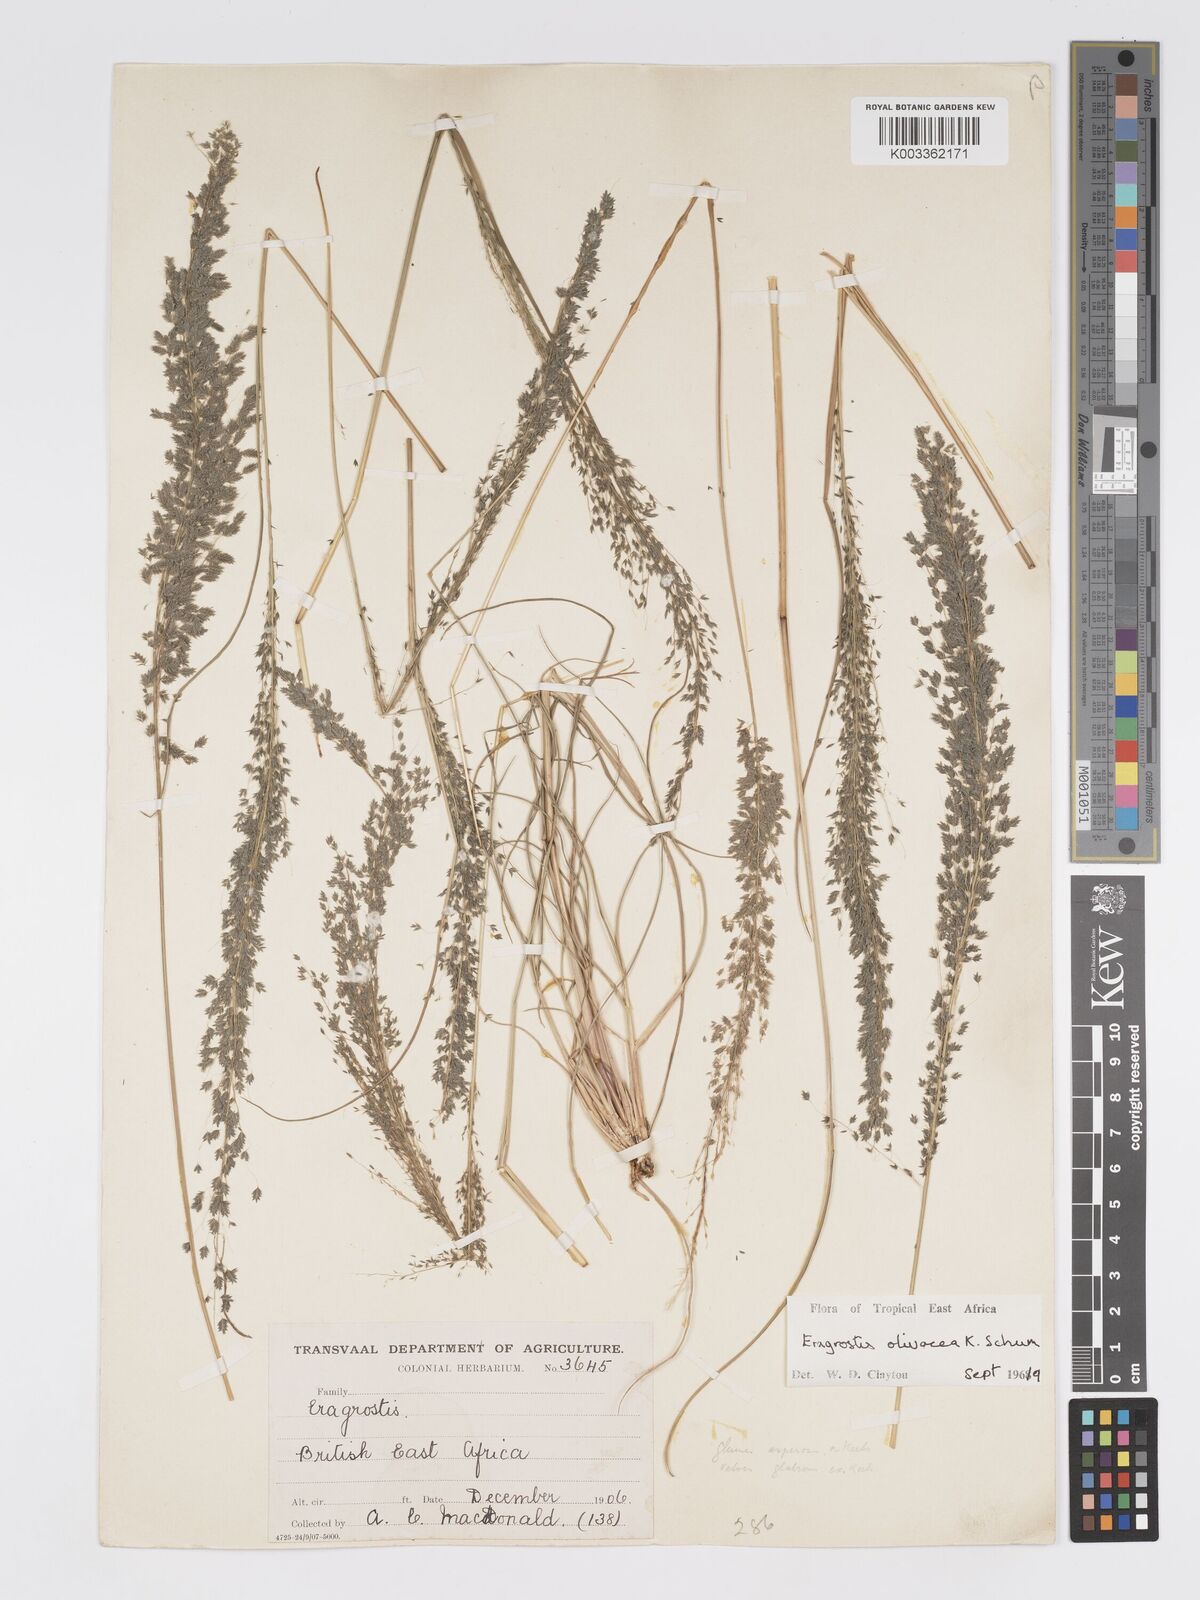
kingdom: Plantae
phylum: Tracheophyta
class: Liliopsida
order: Poales
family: Poaceae
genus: Eragrostis
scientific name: Eragrostis olivacea
